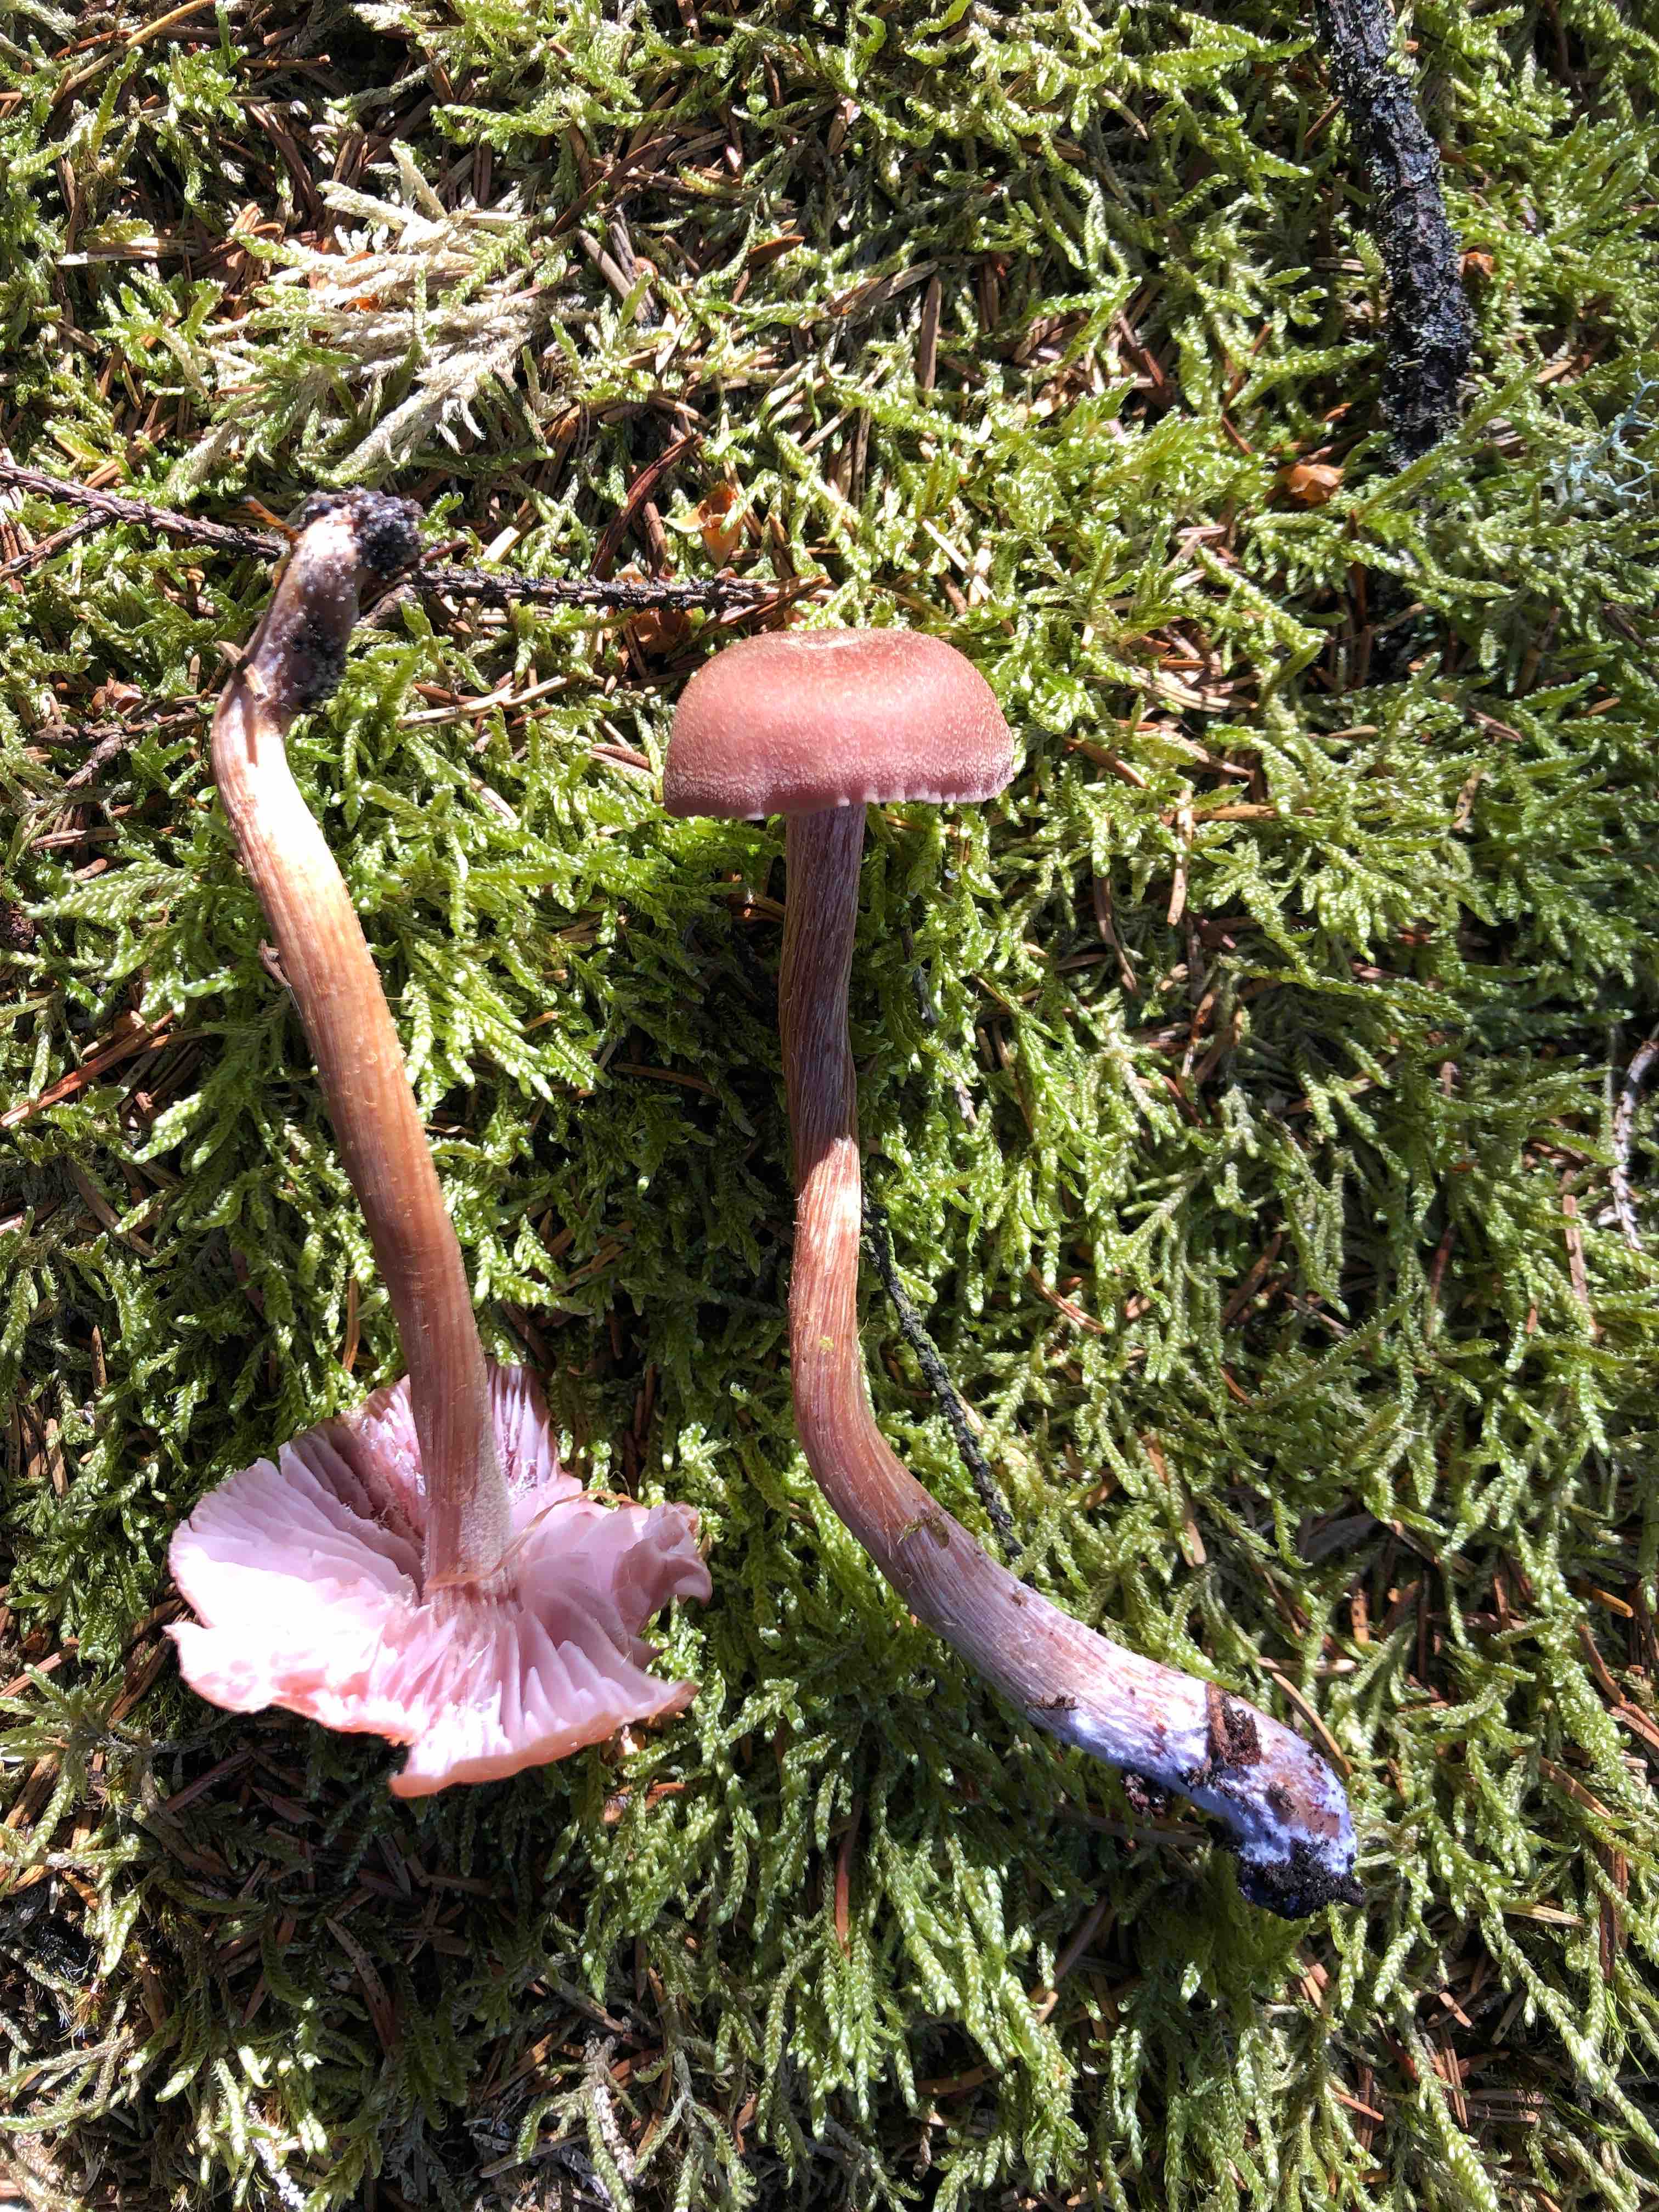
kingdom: Fungi
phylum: Basidiomycota
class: Agaricomycetes
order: Agaricales
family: Hydnangiaceae
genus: Laccaria
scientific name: Laccaria bicolor
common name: tvefarvet ametysthat
